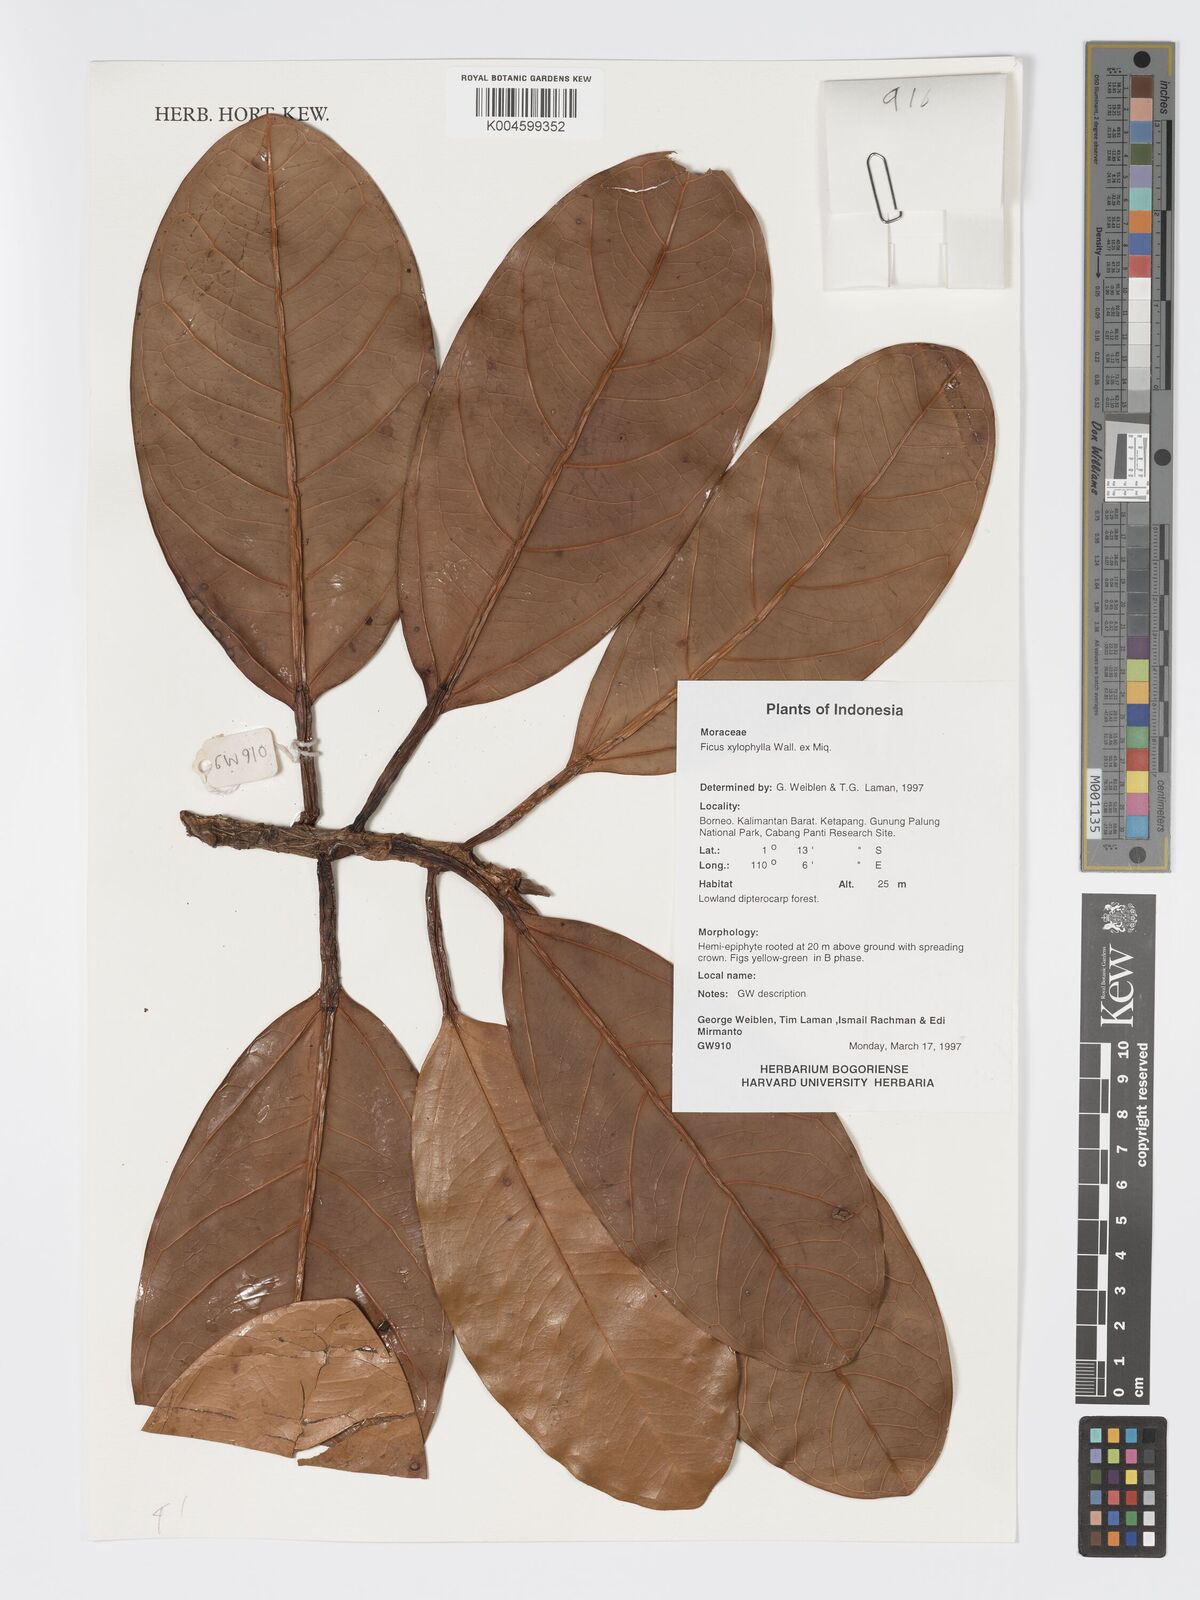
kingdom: Plantae
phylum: Tracheophyta
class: Magnoliopsida
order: Rosales
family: Moraceae
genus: Ficus
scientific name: Ficus xylophylla
